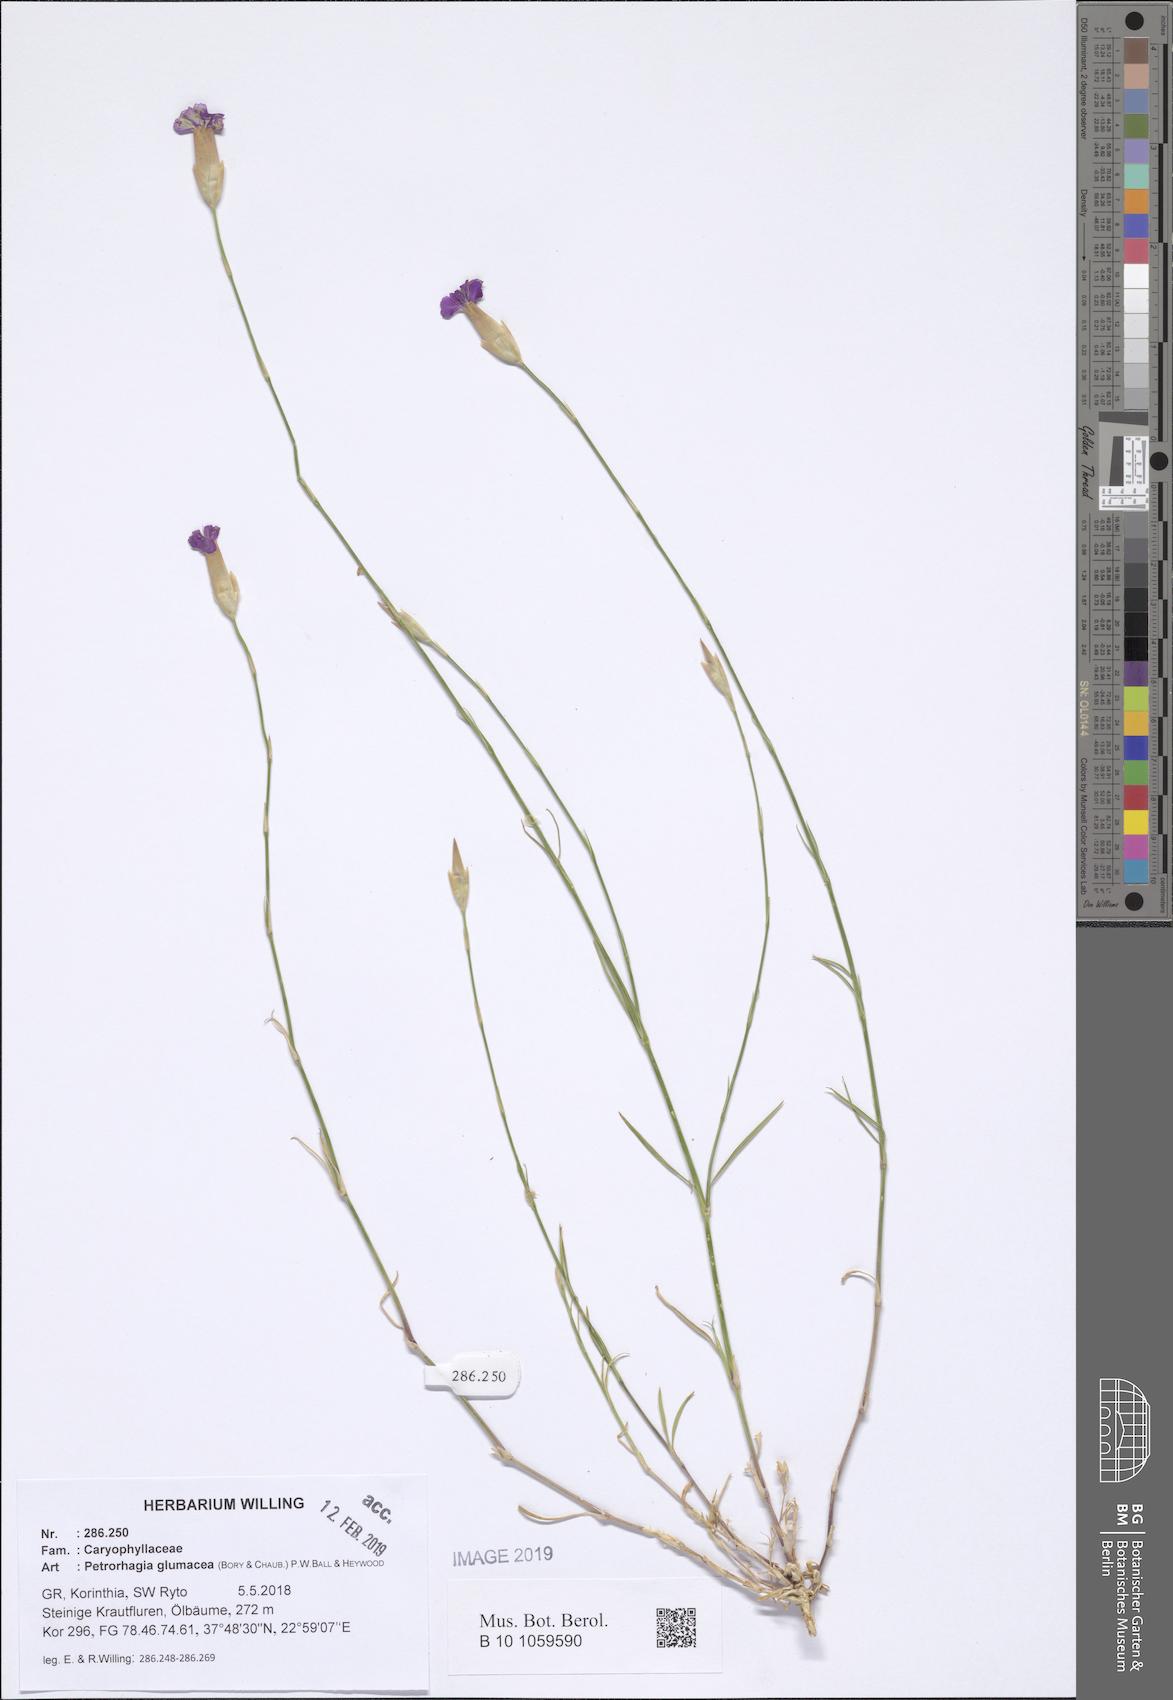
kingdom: Plantae
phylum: Tracheophyta
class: Magnoliopsida
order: Caryophyllales
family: Caryophyllaceae
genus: Petrorhagia
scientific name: Petrorhagia glumacea
